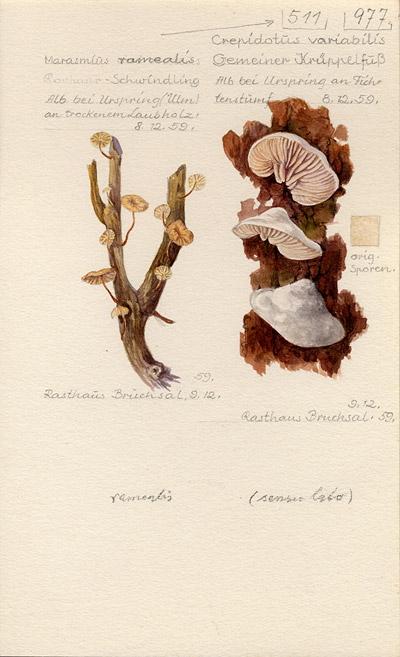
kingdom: Fungi
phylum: Basidiomycota
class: Agaricomycetes
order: Agaricales
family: Crepidotaceae
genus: Crepidotus
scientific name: Crepidotus variabilis
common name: Variable oysterling
